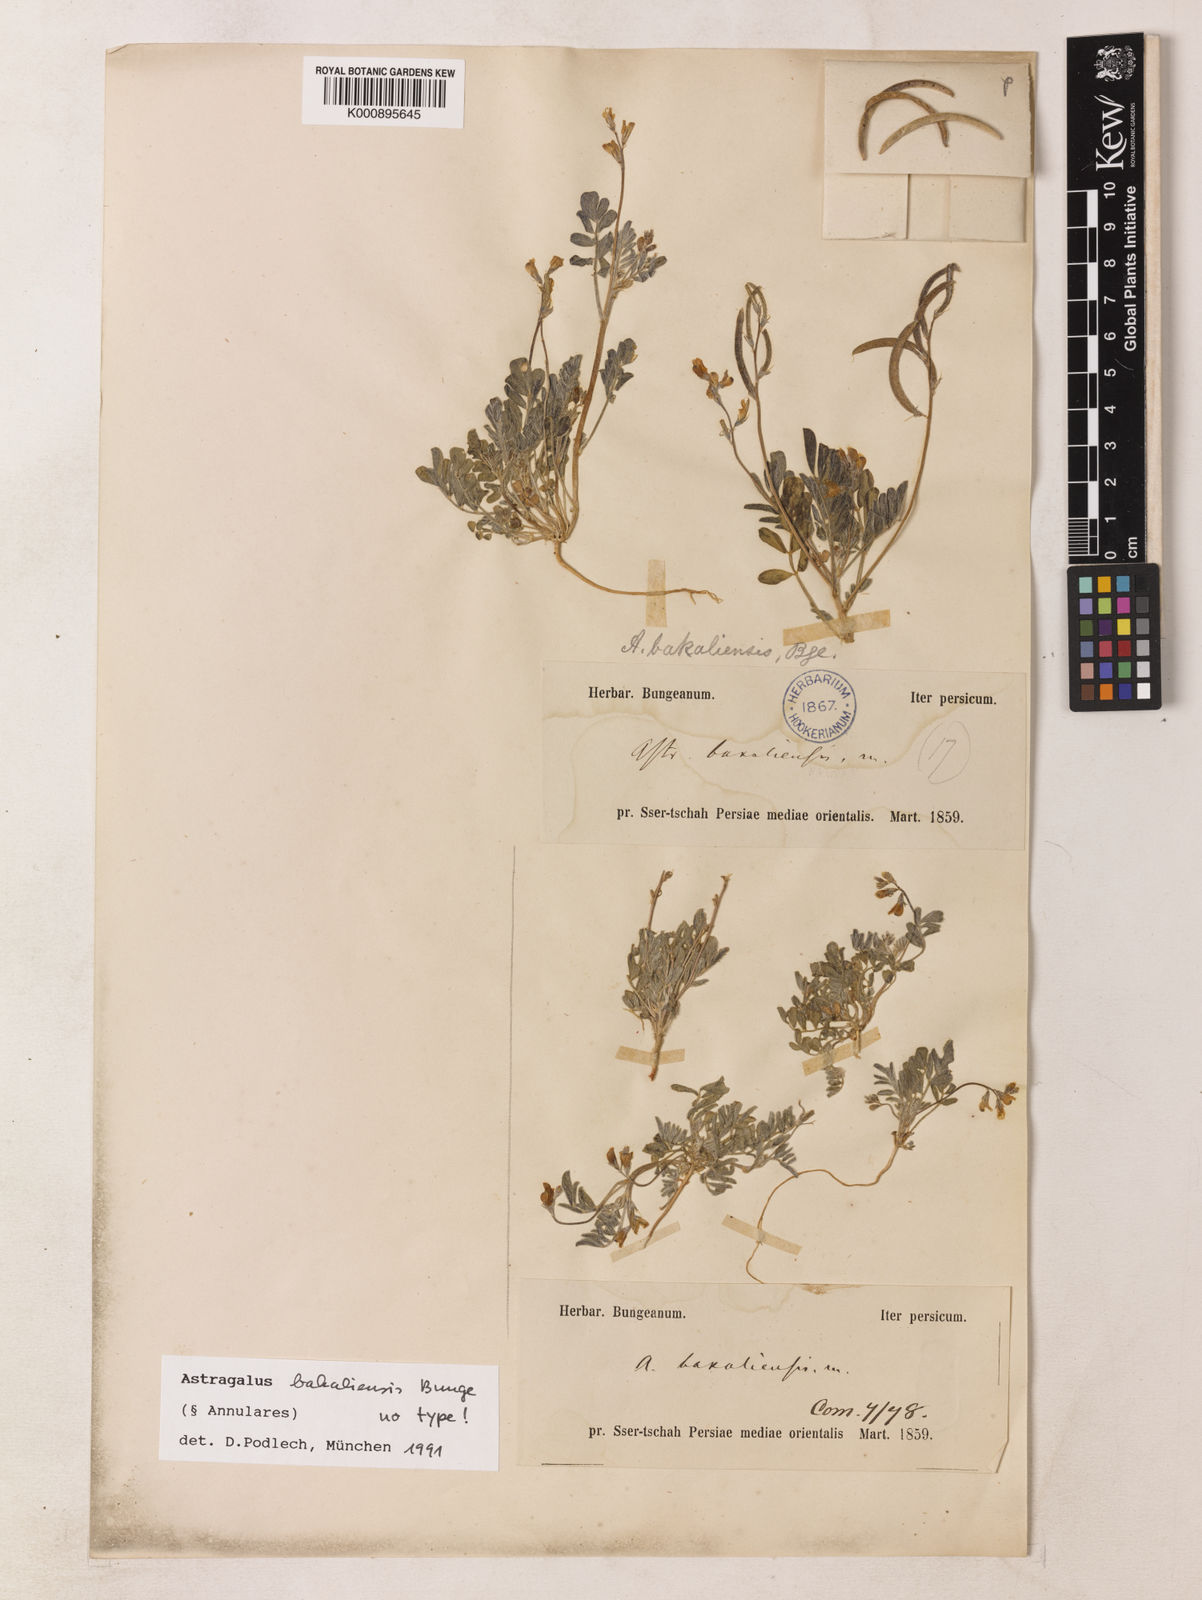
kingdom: Plantae
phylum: Tracheophyta
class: Magnoliopsida
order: Fabales
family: Fabaceae
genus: Astragalus
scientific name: Astragalus bakaliensis
